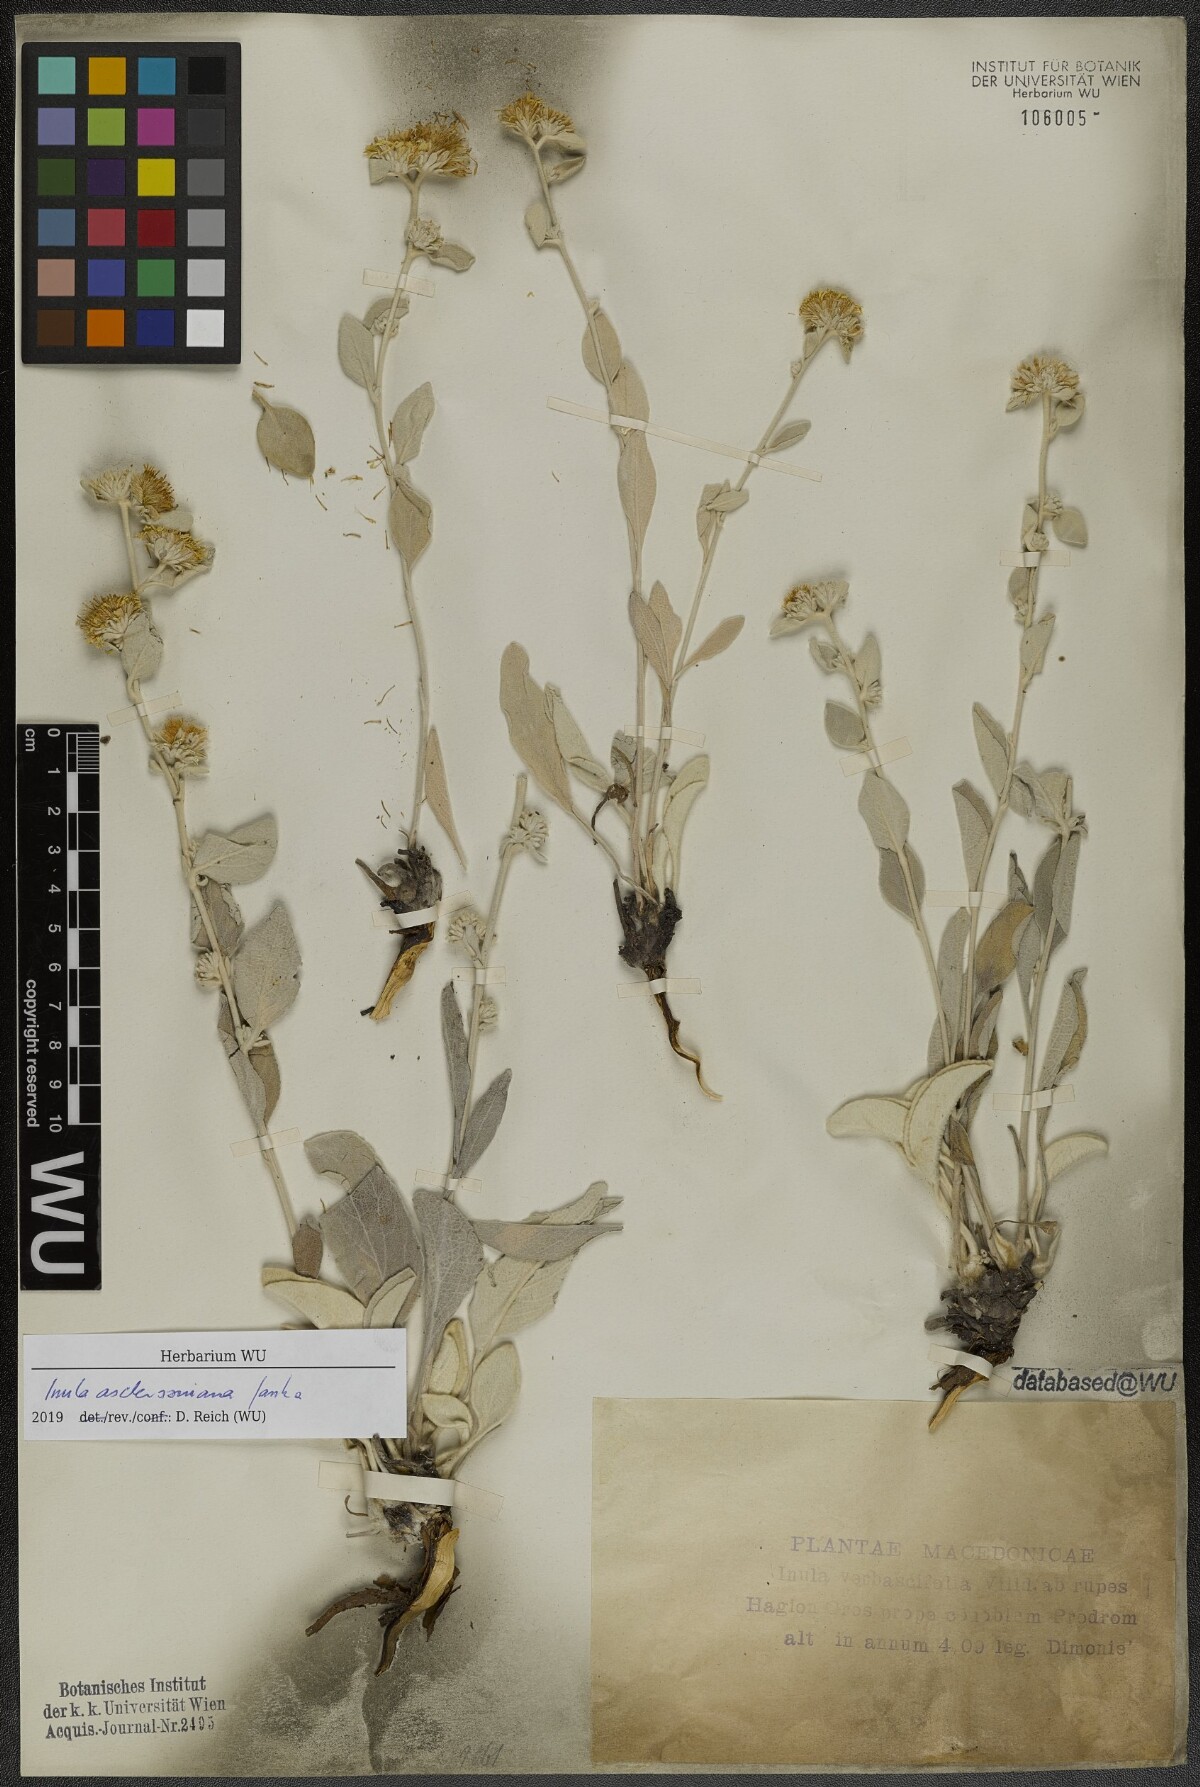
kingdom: Plantae
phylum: Tracheophyta
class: Magnoliopsida
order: Asterales
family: Asteraceae
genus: Pentanema
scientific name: Pentanema verbascifolium
